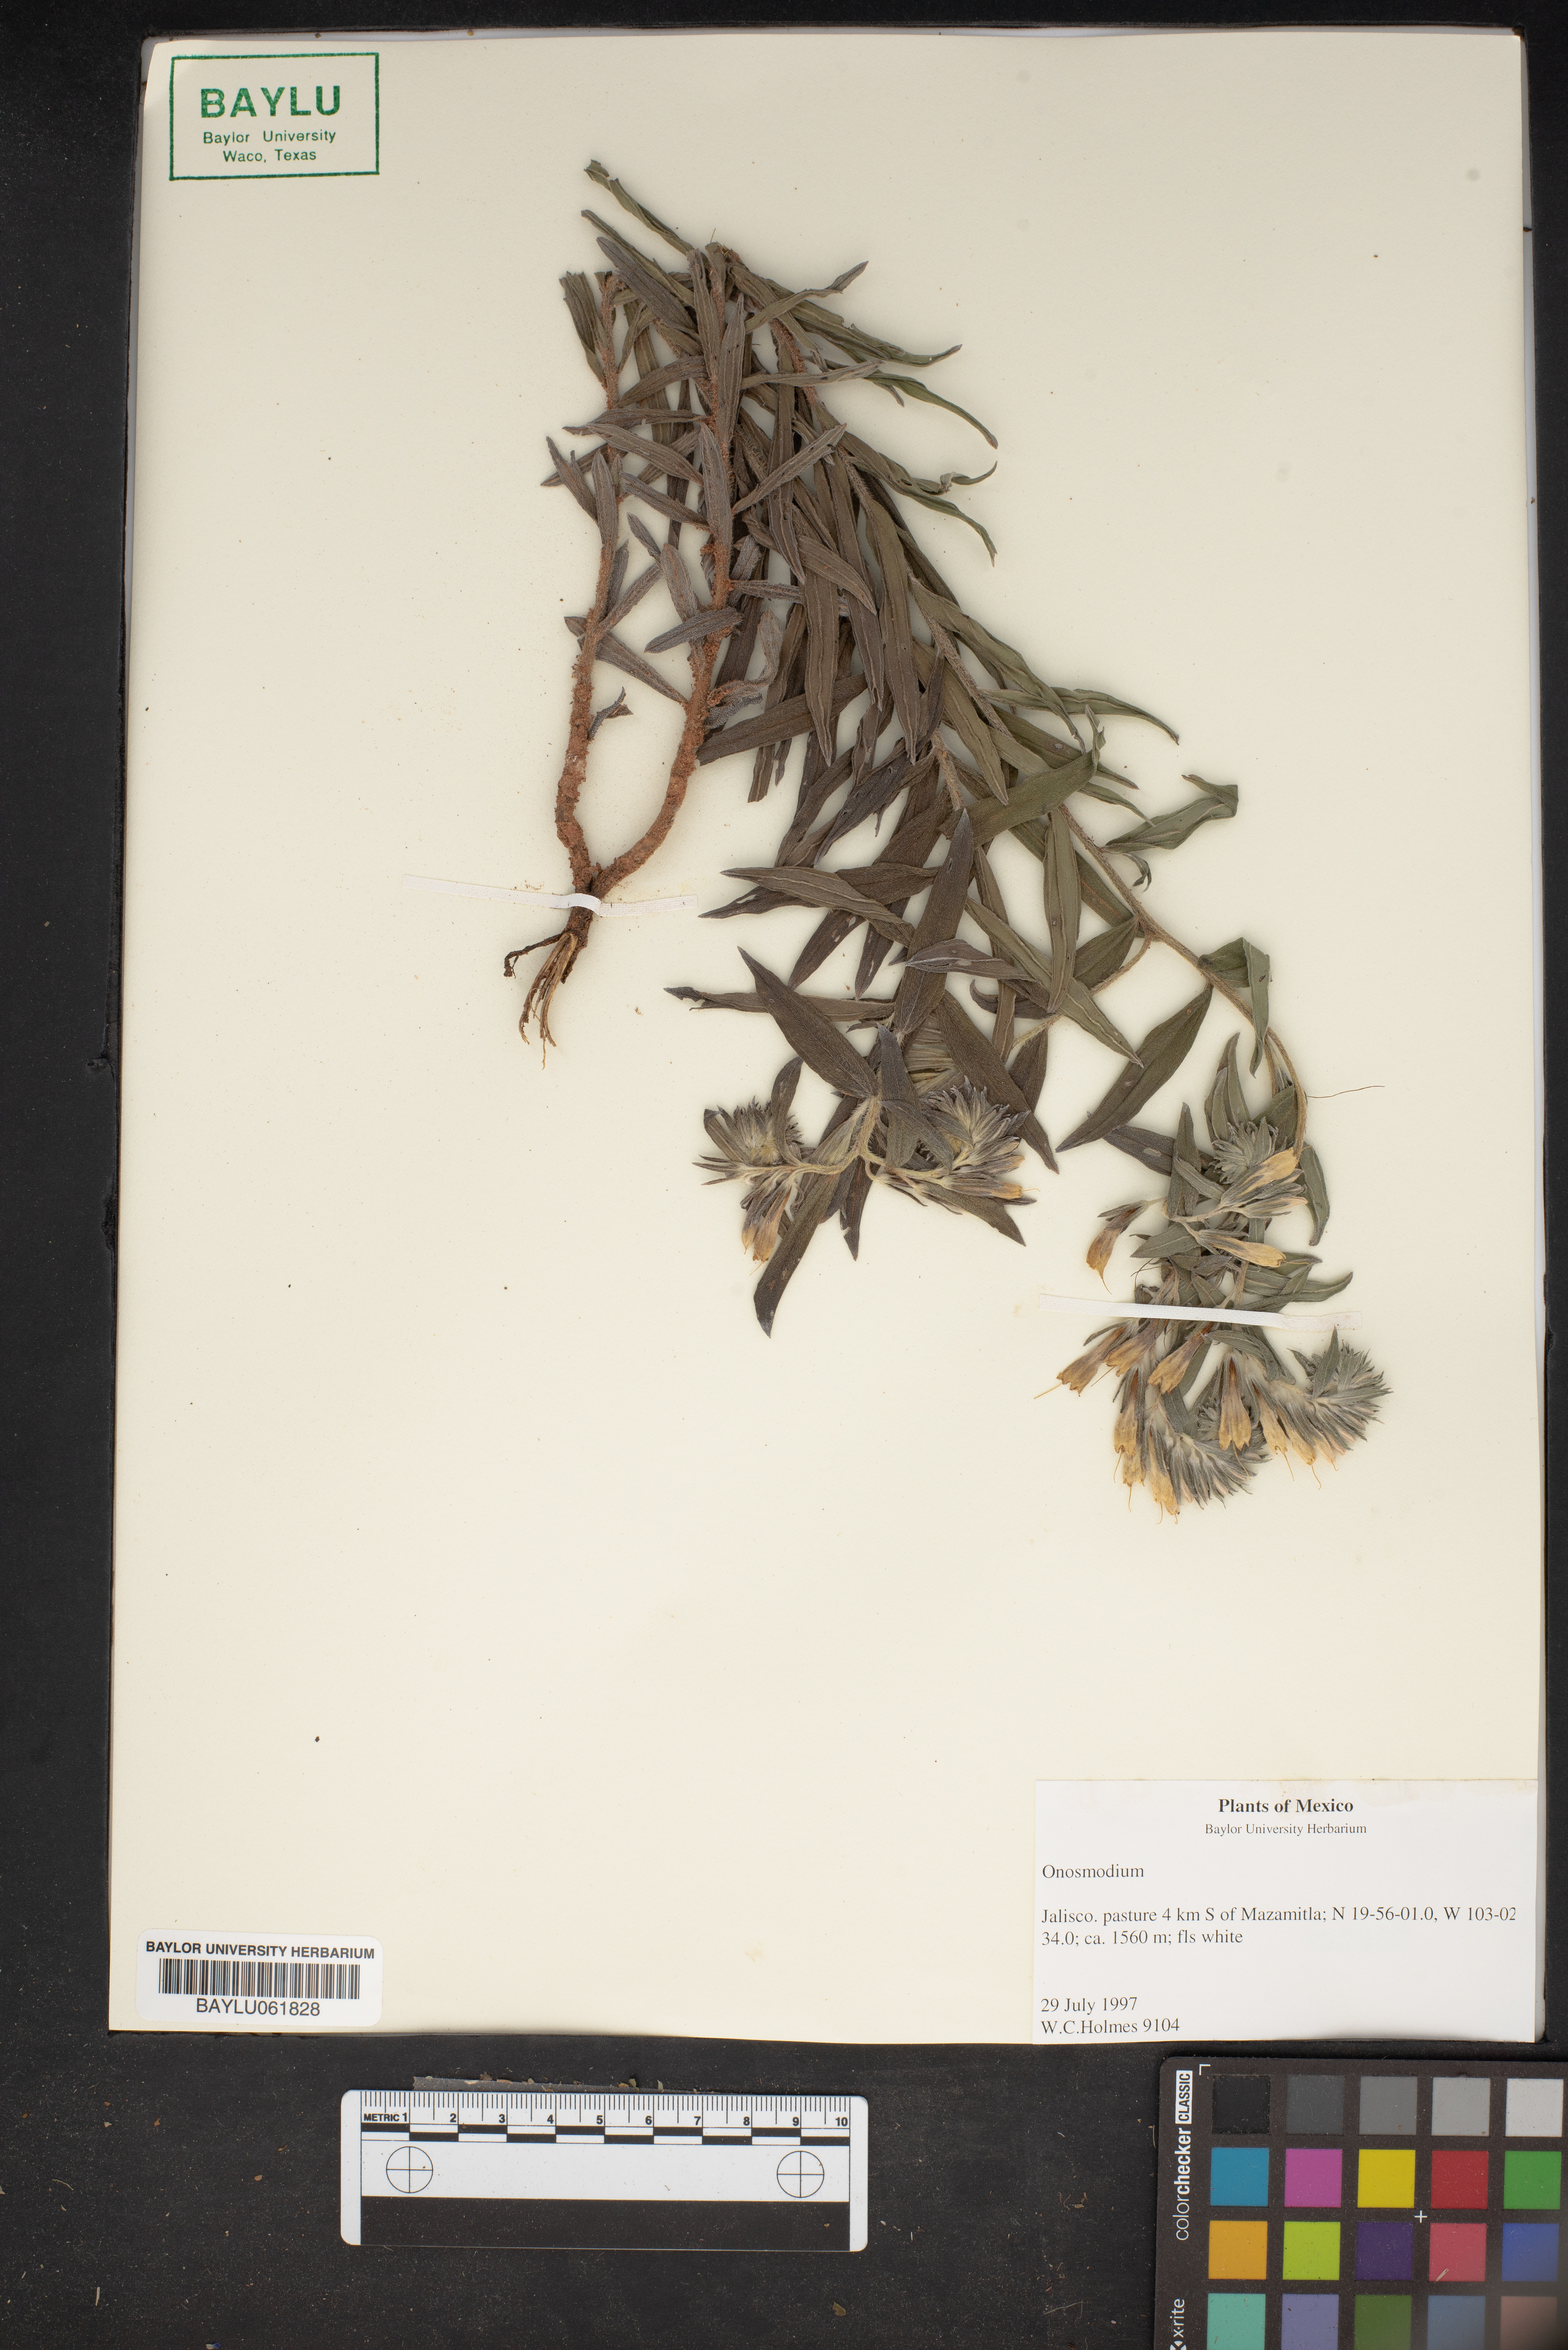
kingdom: Plantae
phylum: Tracheophyta
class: Magnoliopsida
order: Boraginales
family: Boraginaceae
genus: Lithospermum
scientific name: Lithospermum
